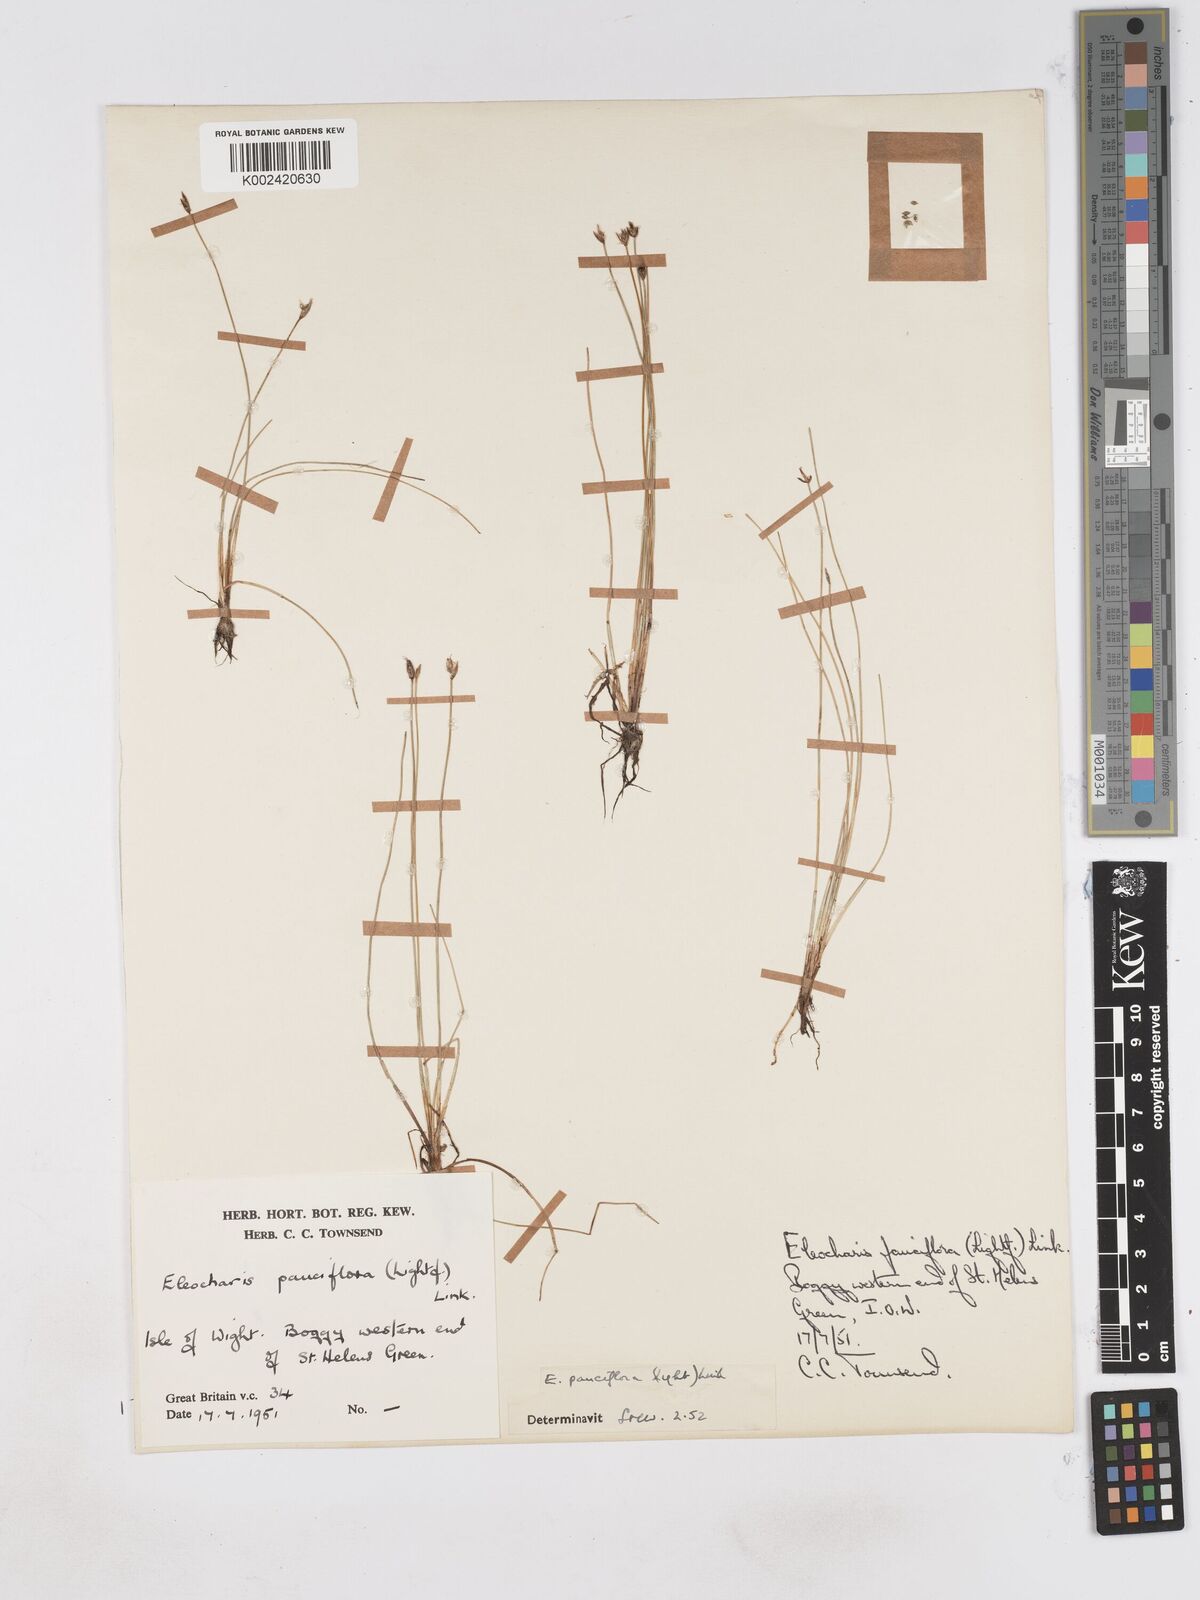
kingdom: Plantae
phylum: Tracheophyta
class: Liliopsida
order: Poales
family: Cyperaceae
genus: Eleocharis
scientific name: Eleocharis quinqueflora
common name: Few-flowered spike-rush
